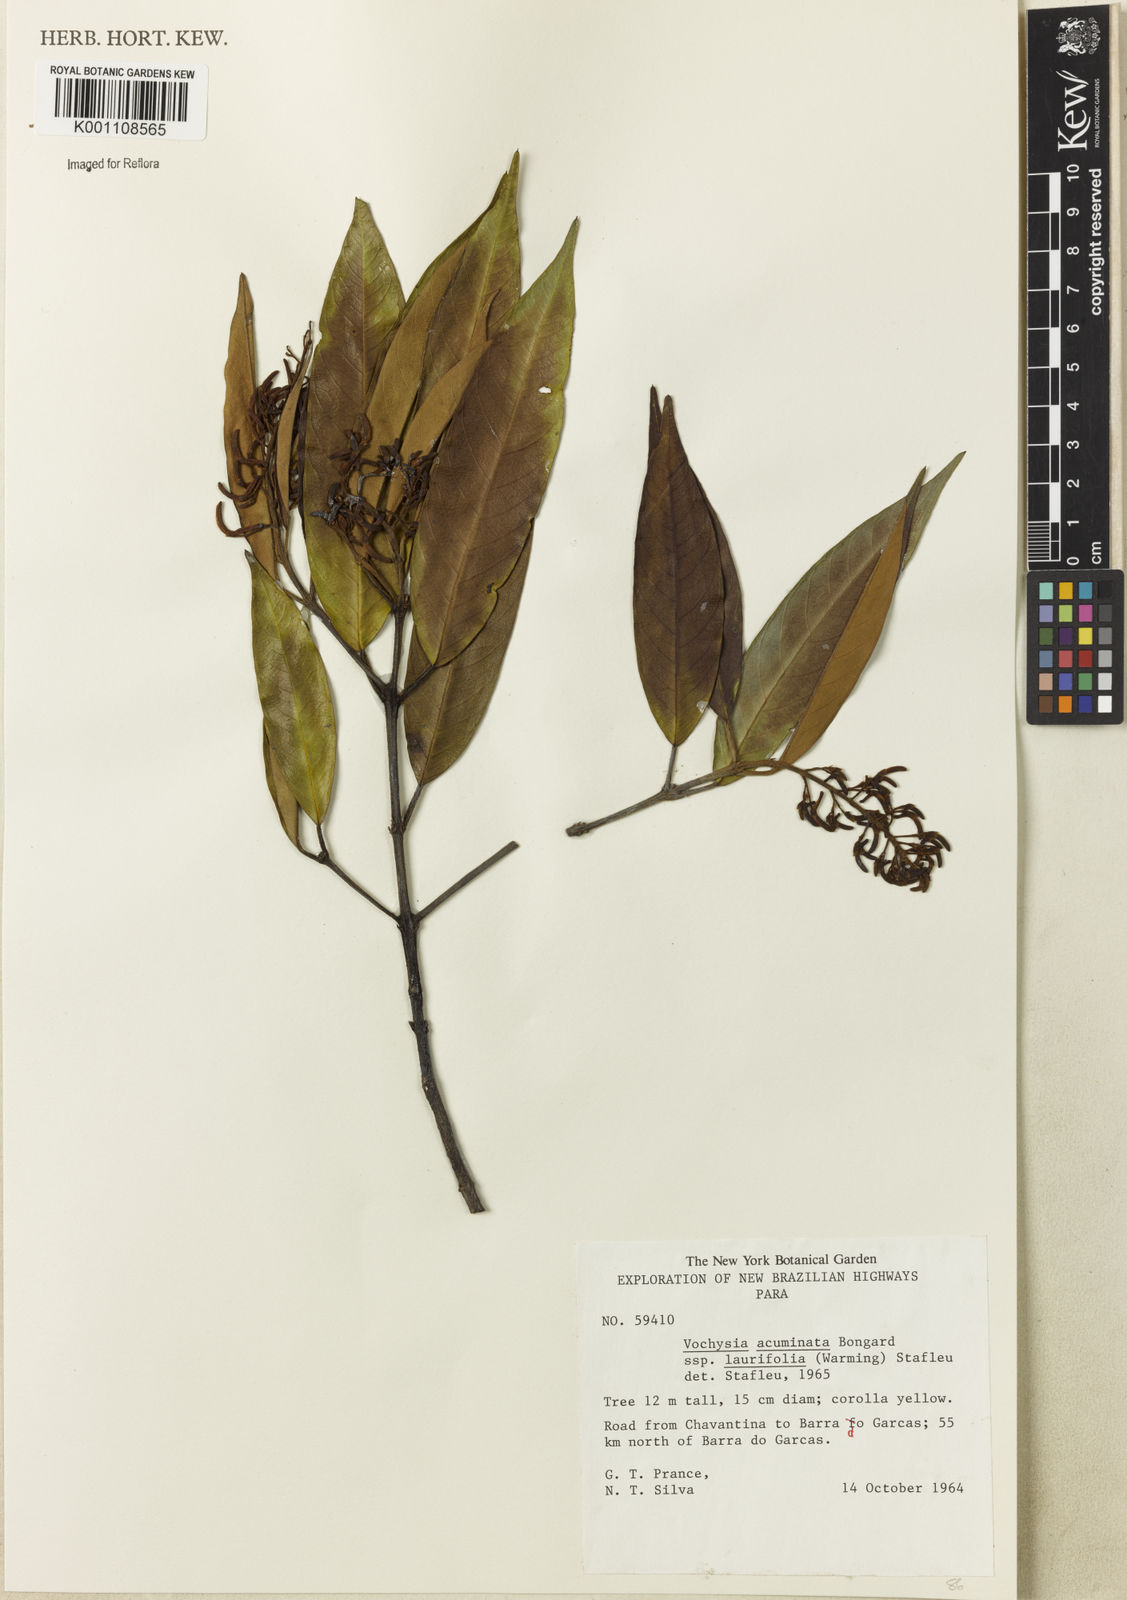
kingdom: Plantae
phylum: Tracheophyta
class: Magnoliopsida
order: Myrtales
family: Vochysiaceae
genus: Vochysia
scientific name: Vochysia laurifolia
